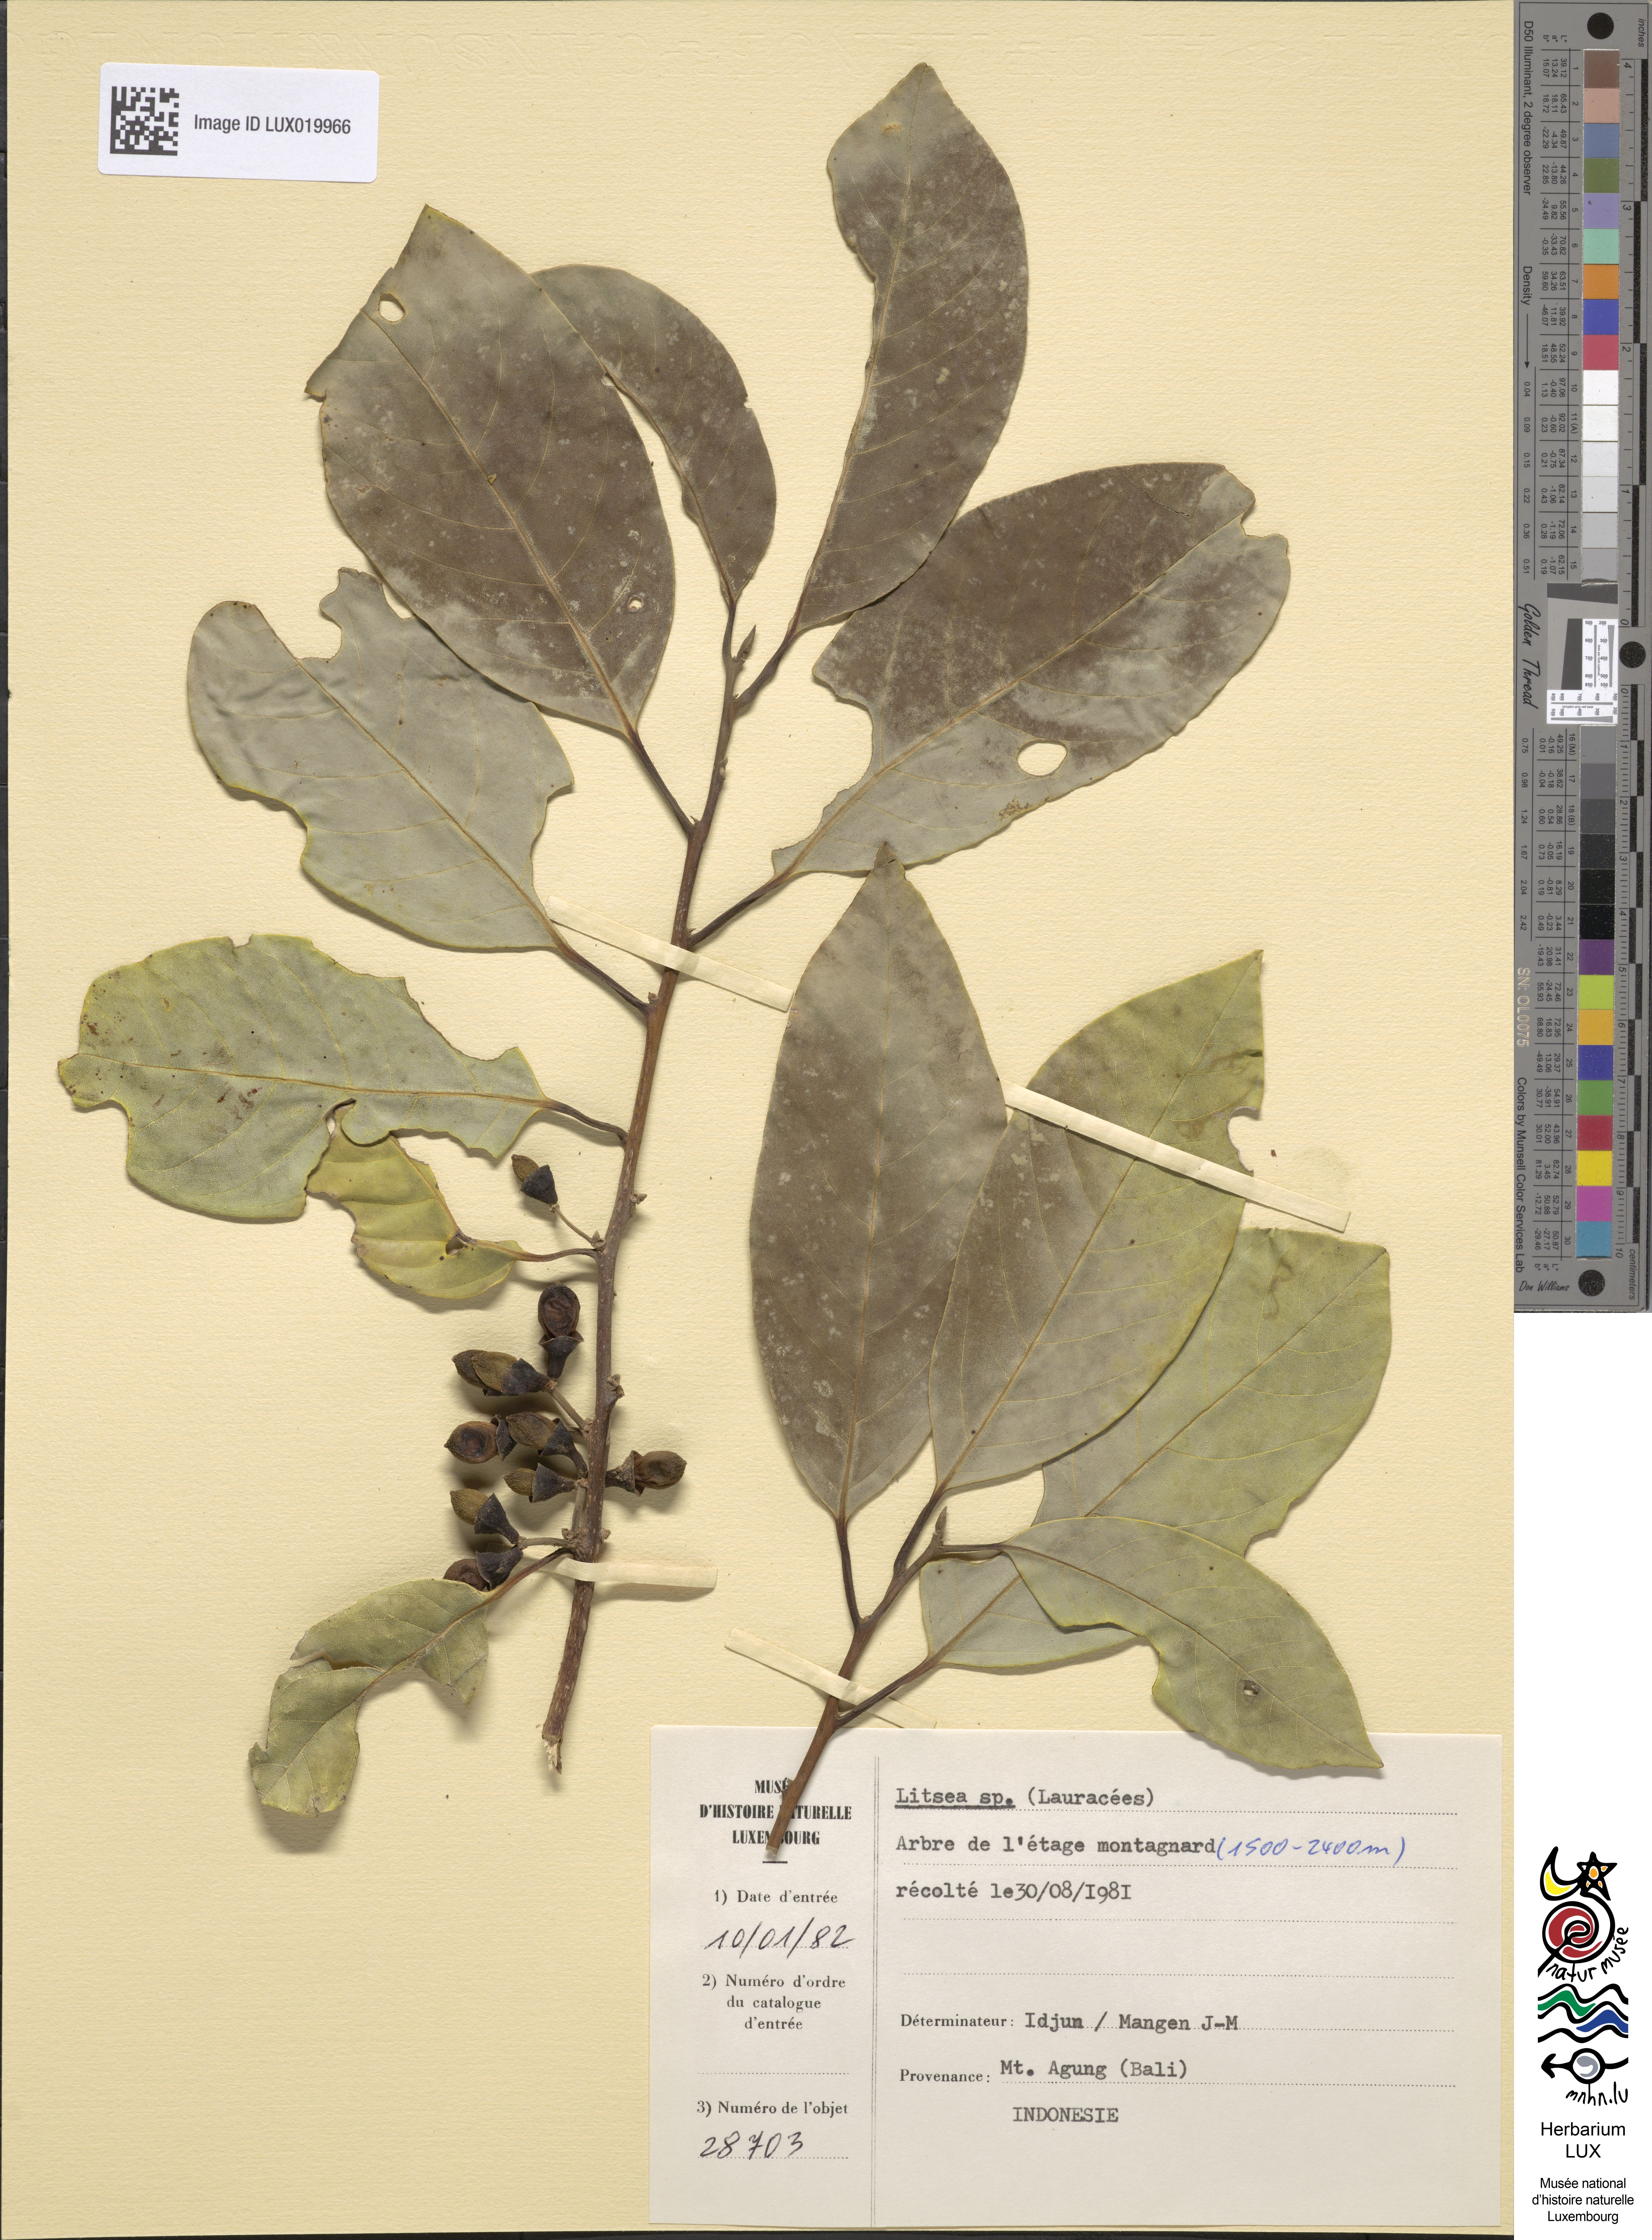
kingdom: Plantae
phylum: Tracheophyta
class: Magnoliopsida
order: Laurales
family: Lauraceae
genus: Litsea
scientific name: Litsea
